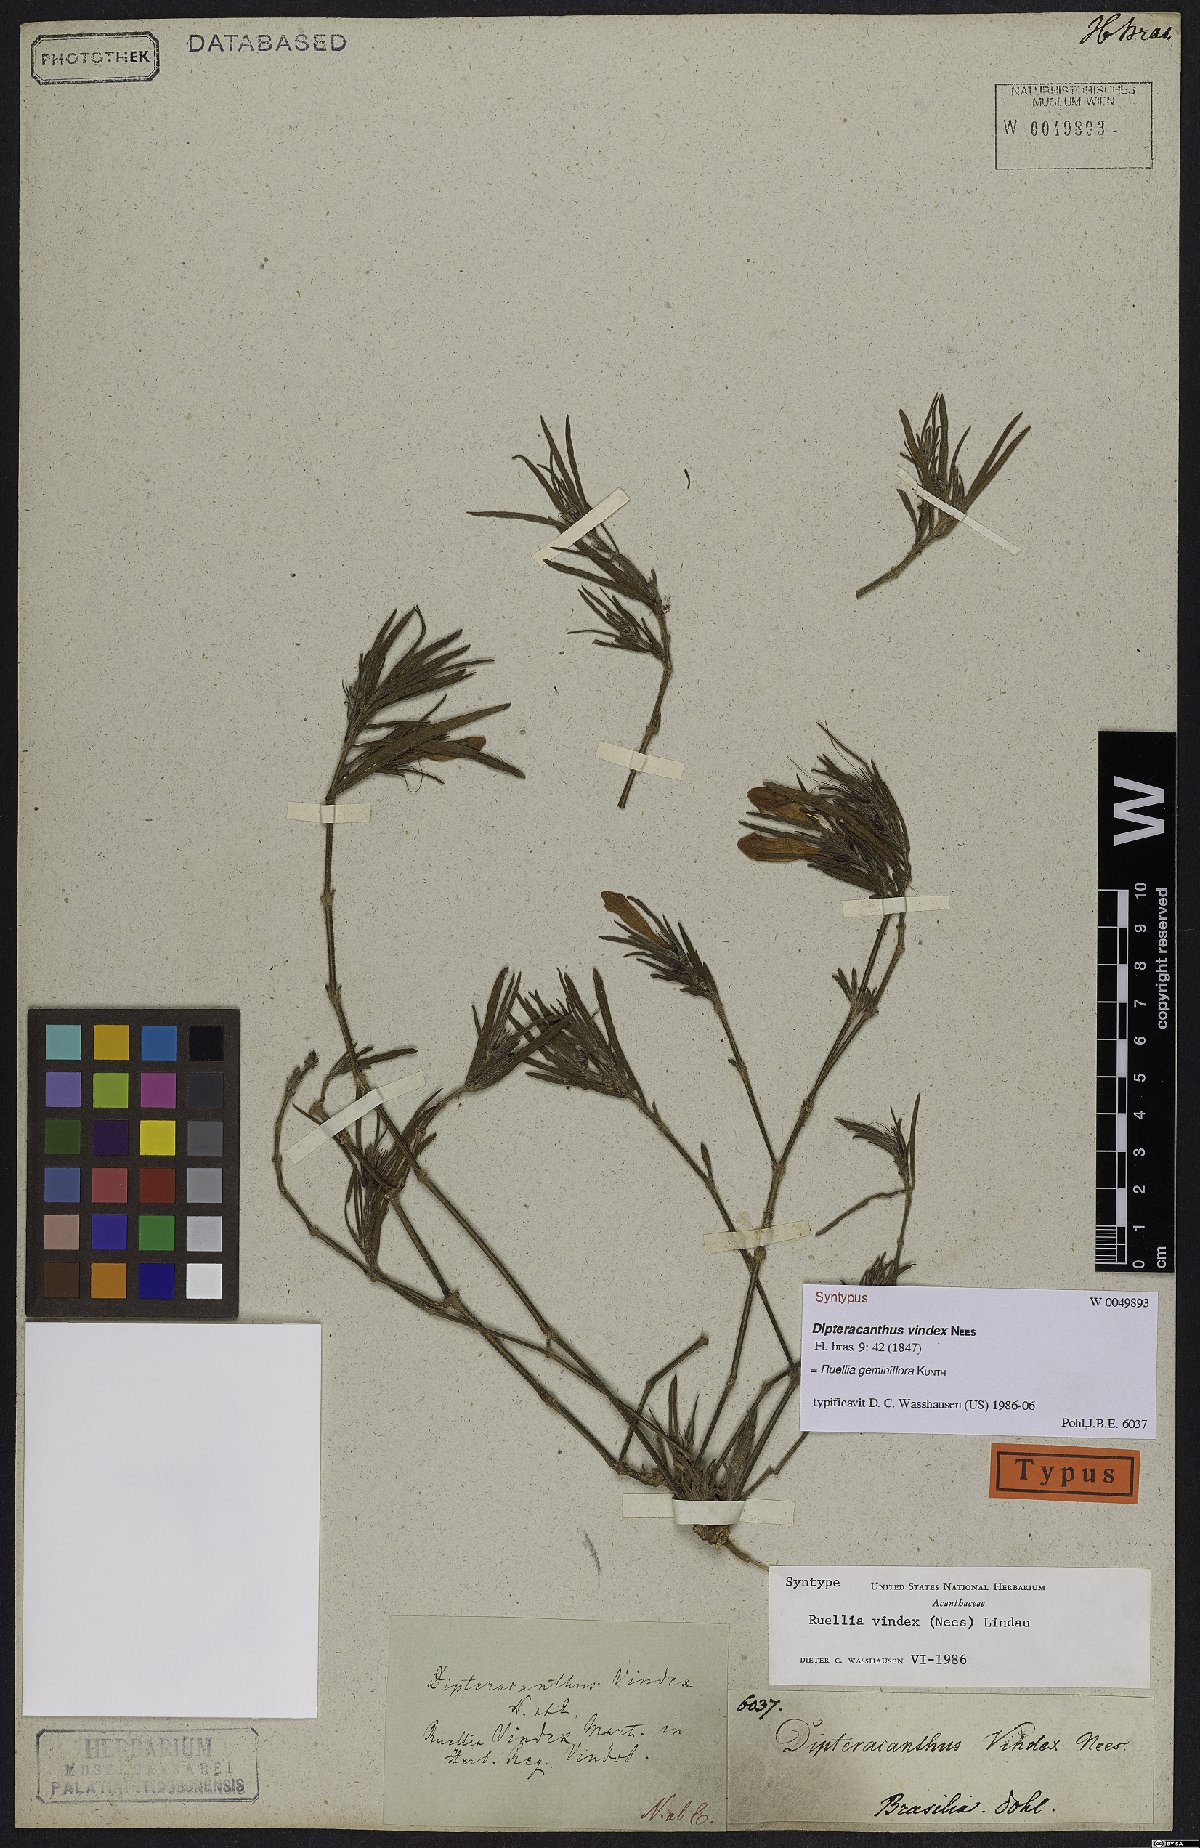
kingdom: Plantae
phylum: Tracheophyta
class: Magnoliopsida
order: Lamiales
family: Acanthaceae
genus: Ruellia
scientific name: Ruellia geminiflora
